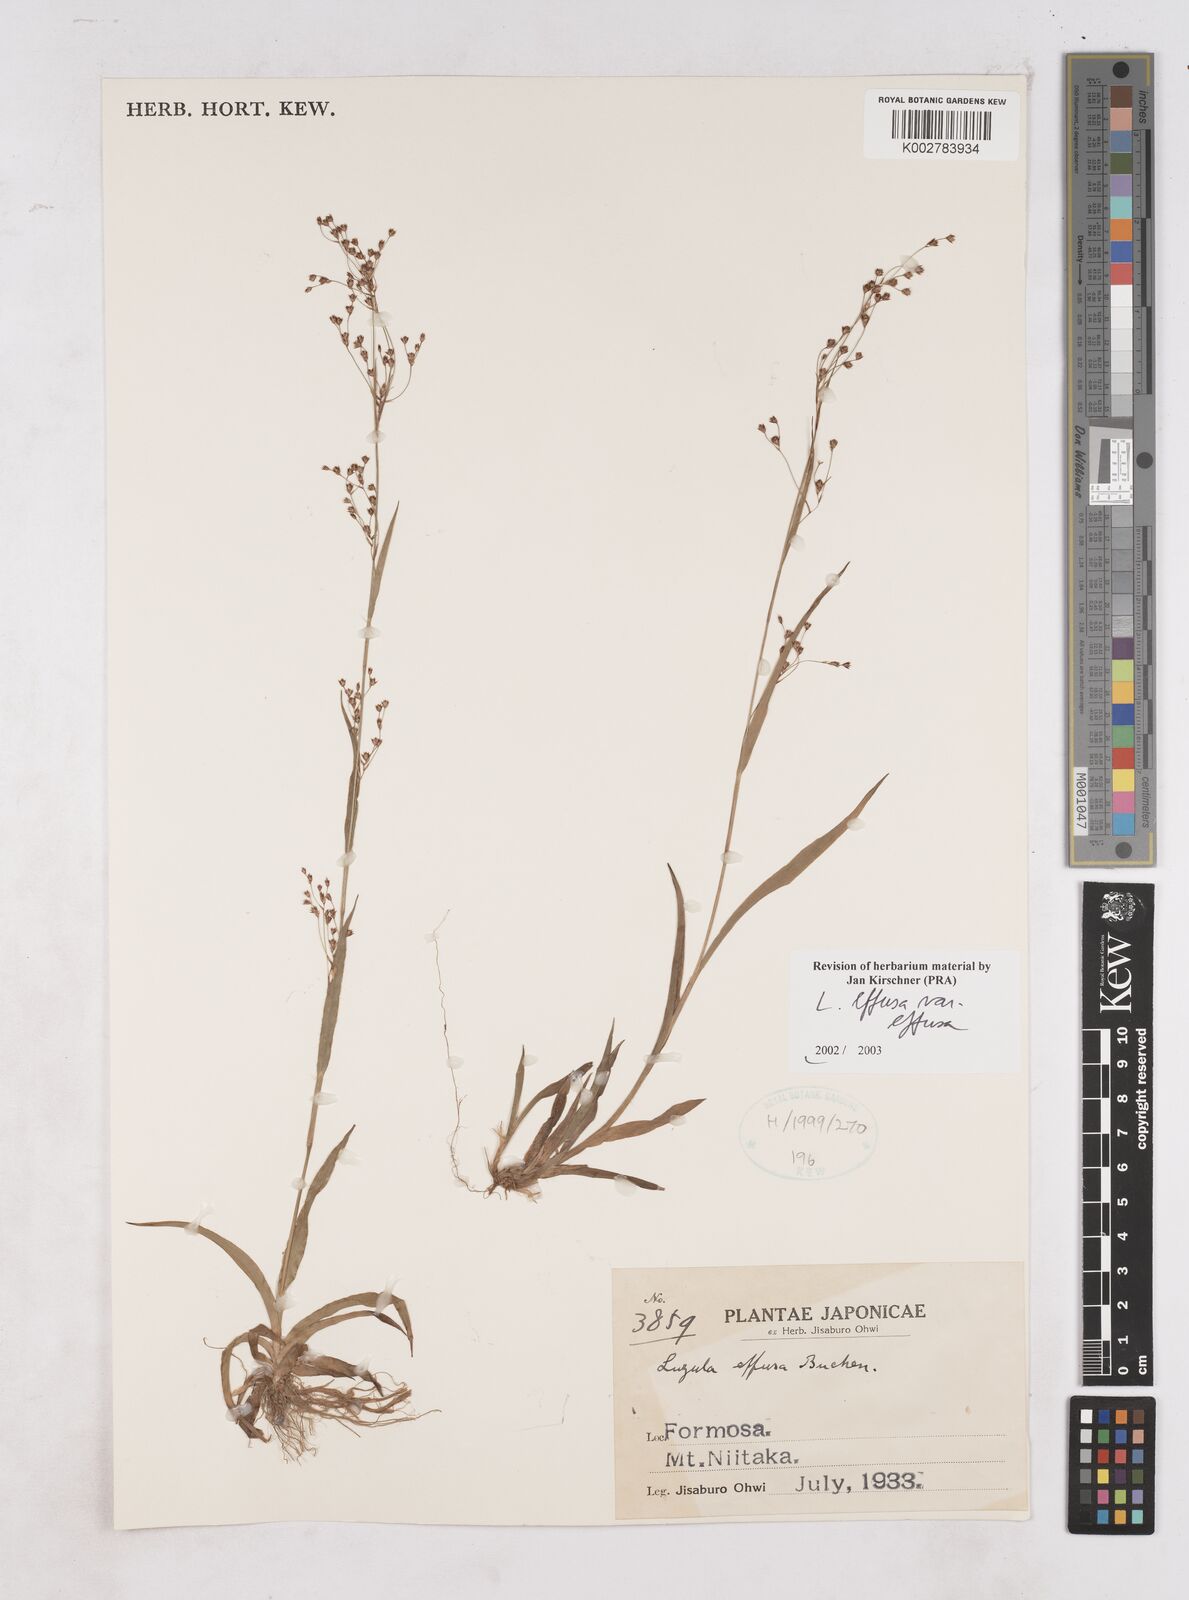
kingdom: Plantae
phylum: Tracheophyta
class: Liliopsida
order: Poales
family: Juncaceae
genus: Luzula
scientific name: Luzula effusa
